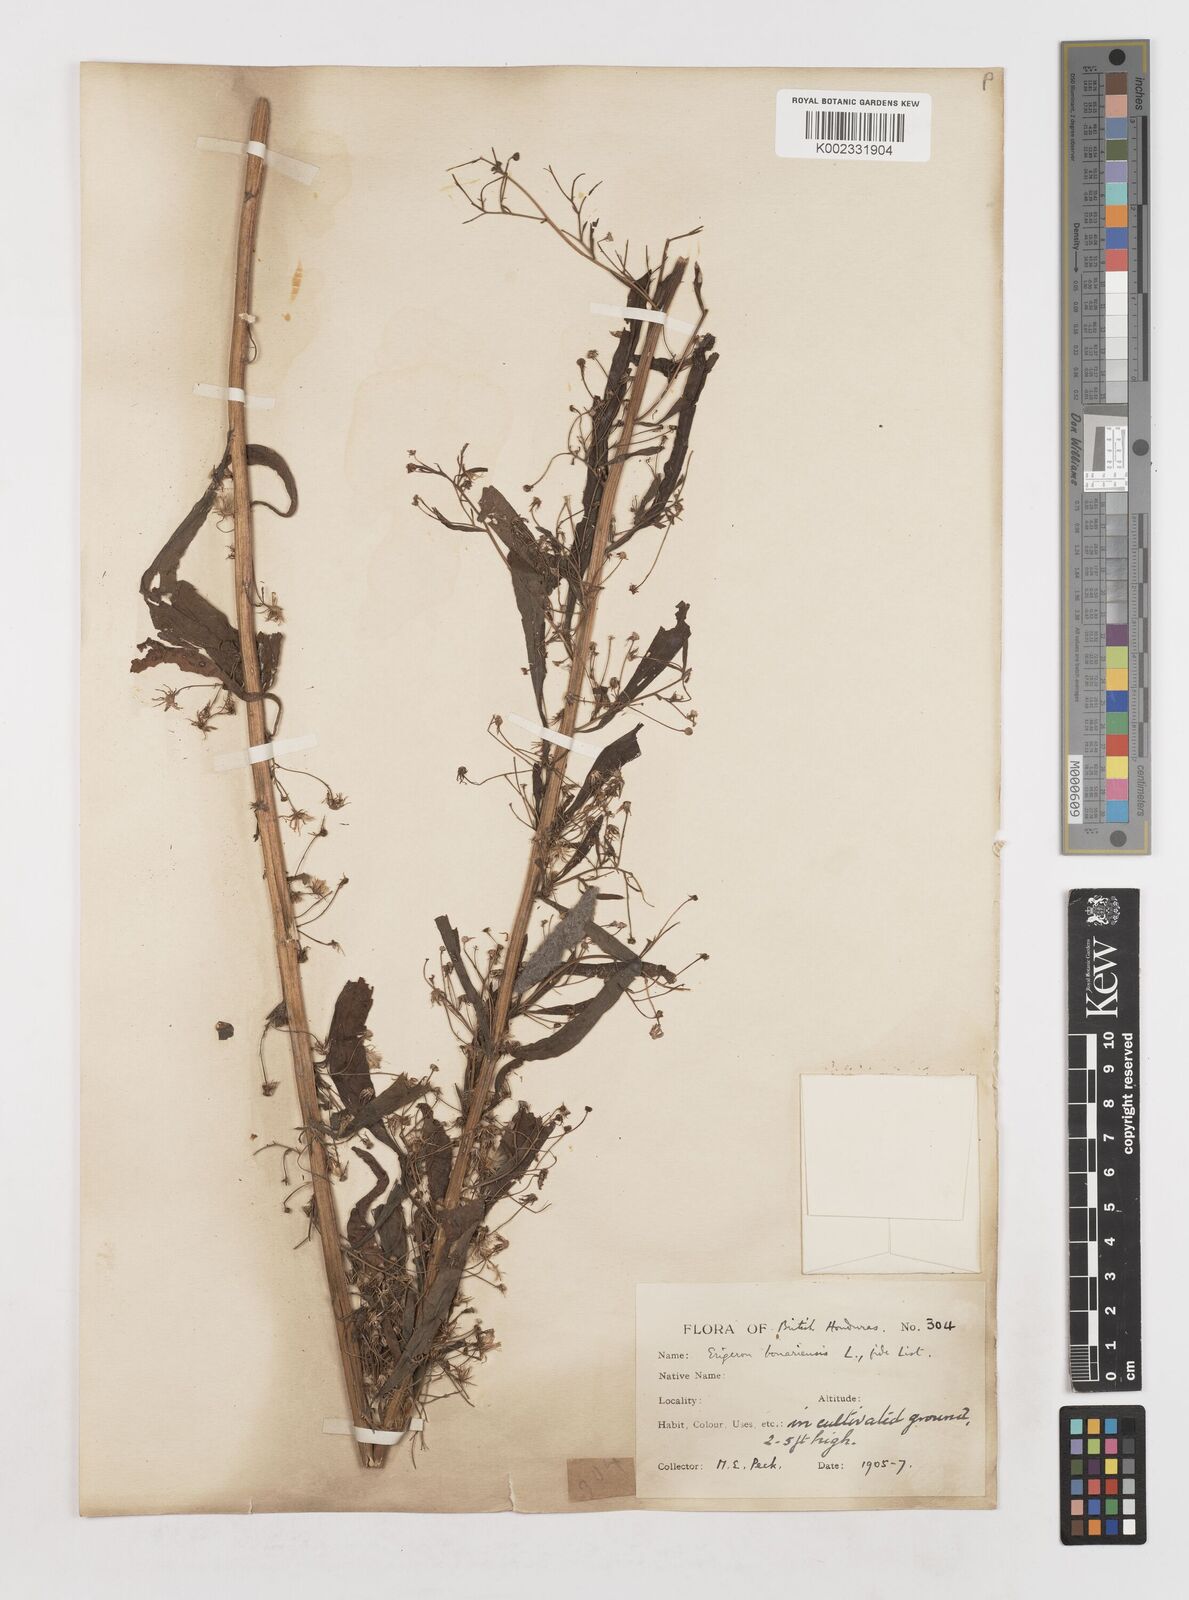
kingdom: Plantae
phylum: Tracheophyta
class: Magnoliopsida
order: Asterales
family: Asteraceae
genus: Erigeron
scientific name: Erigeron
